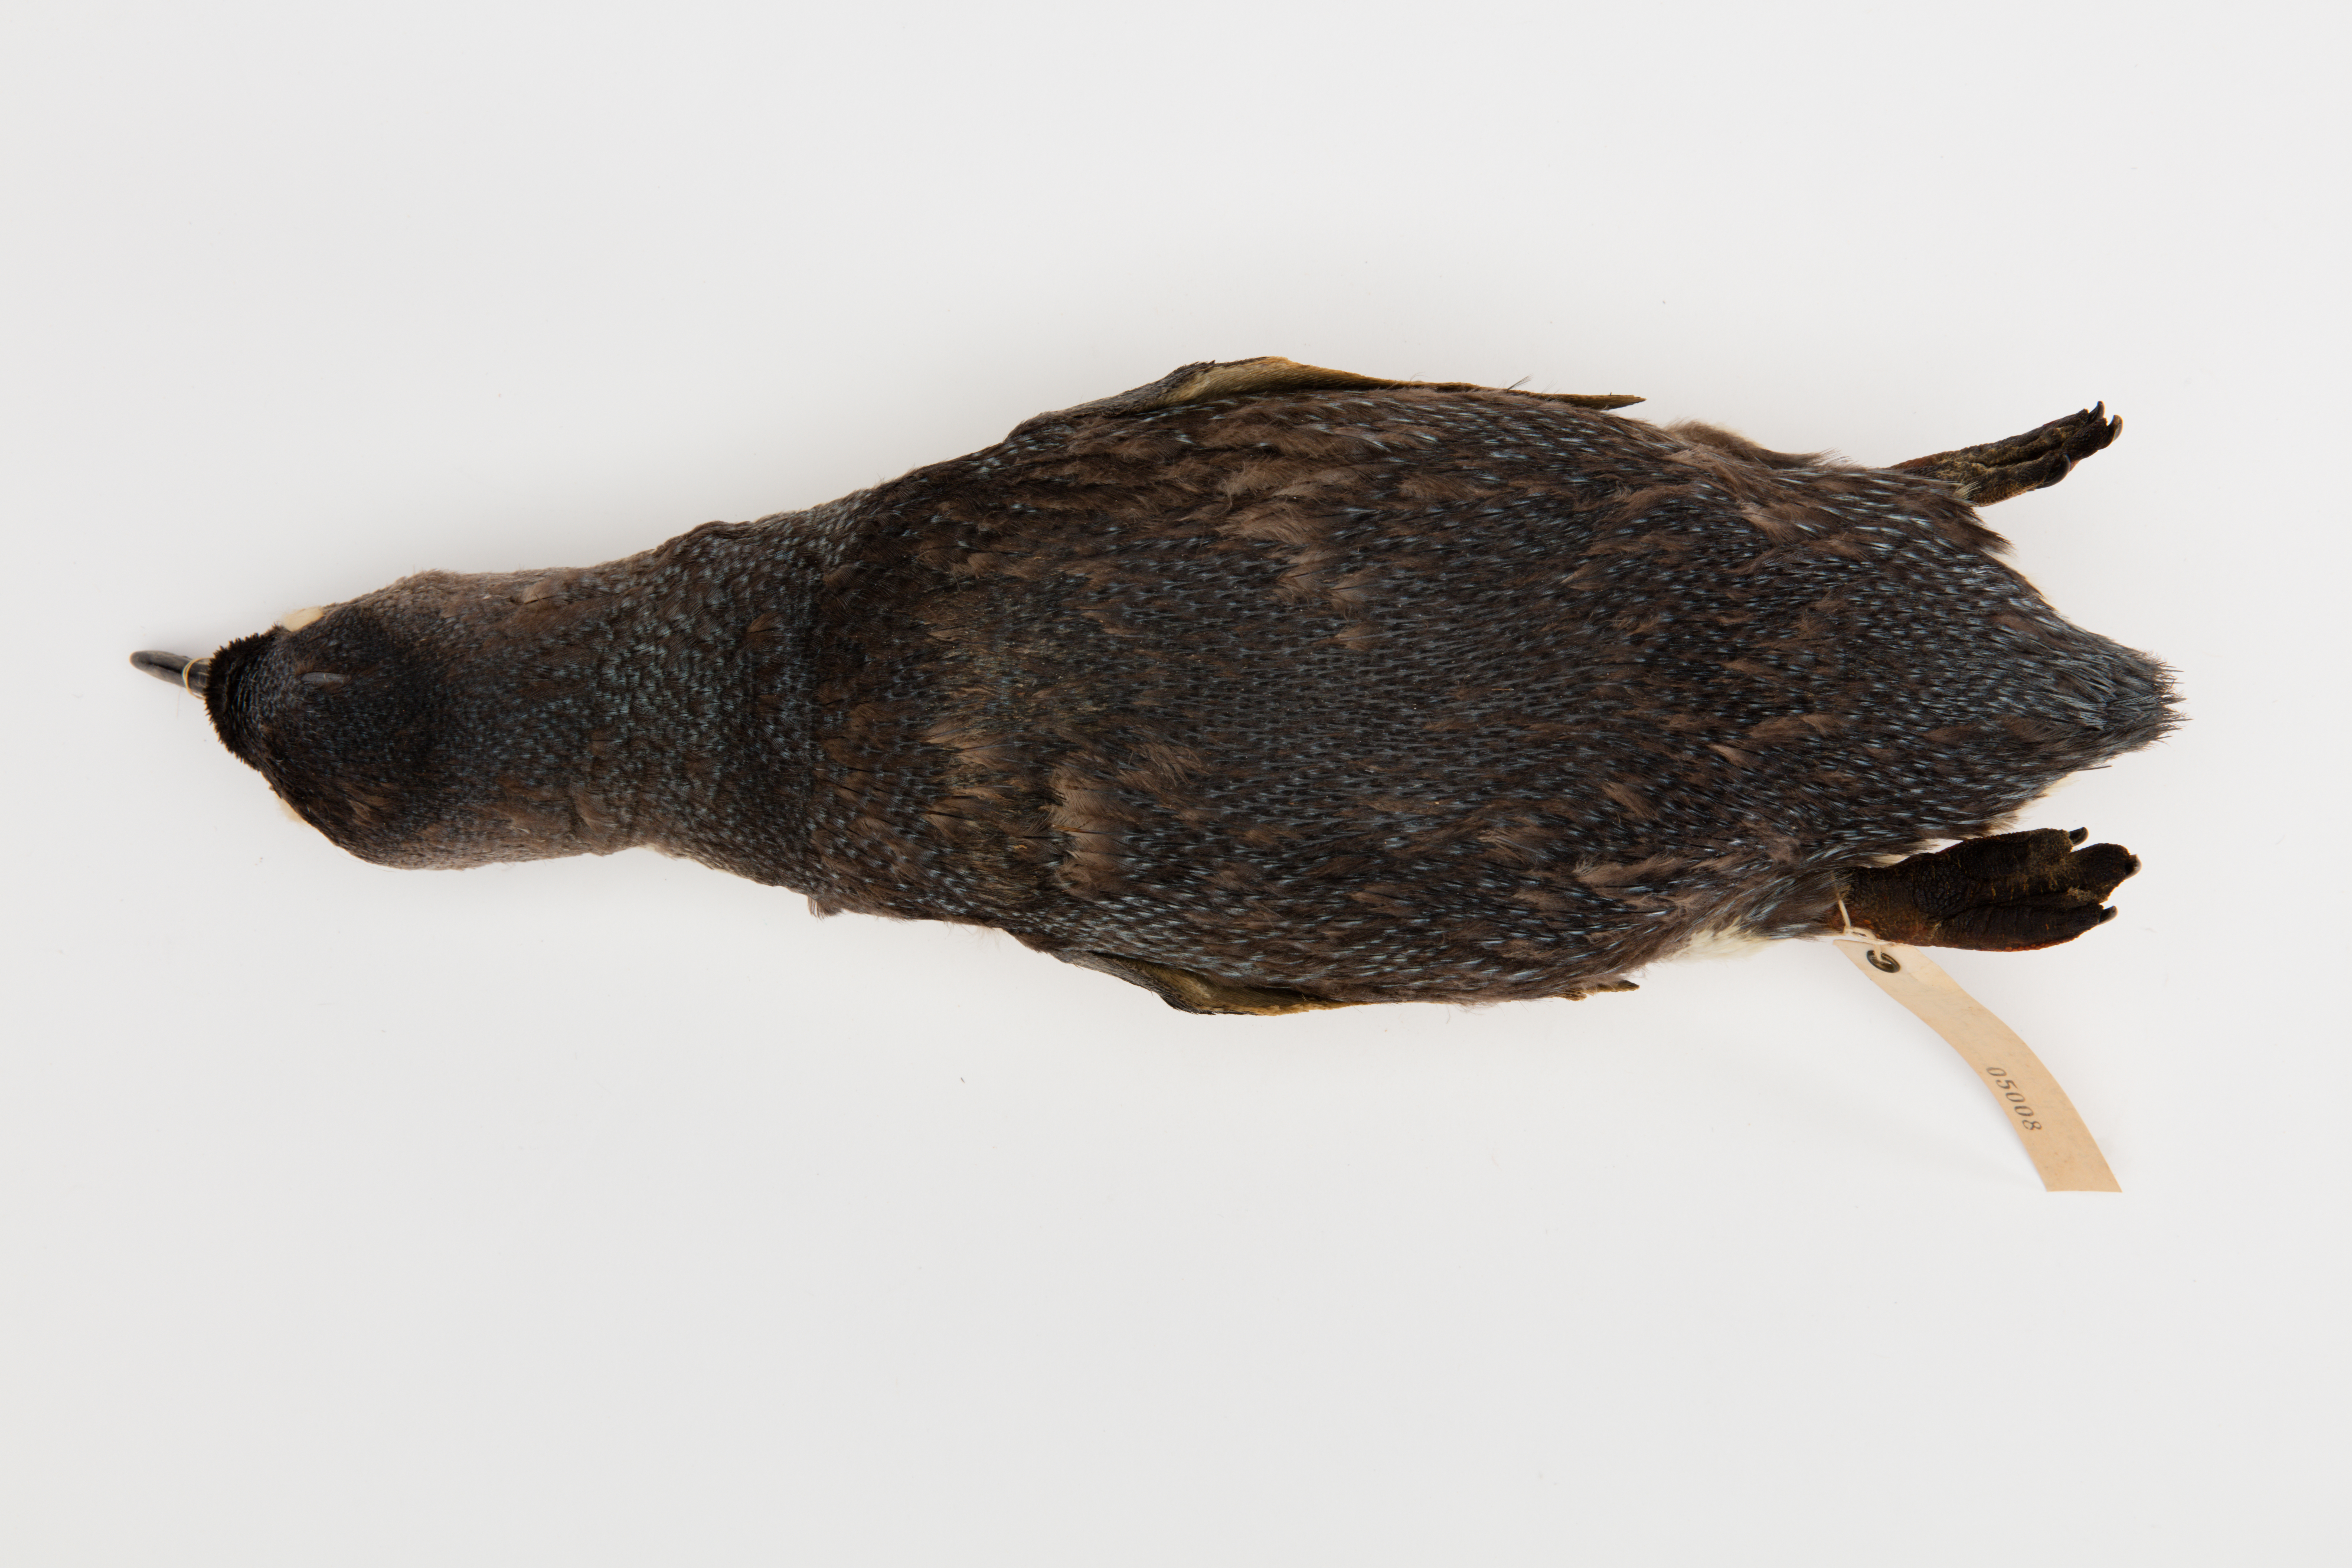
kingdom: Animalia
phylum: Chordata
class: Aves
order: Sphenisciformes
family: Spheniscidae
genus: Eudyptula
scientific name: Eudyptula minor
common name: Little penguin
